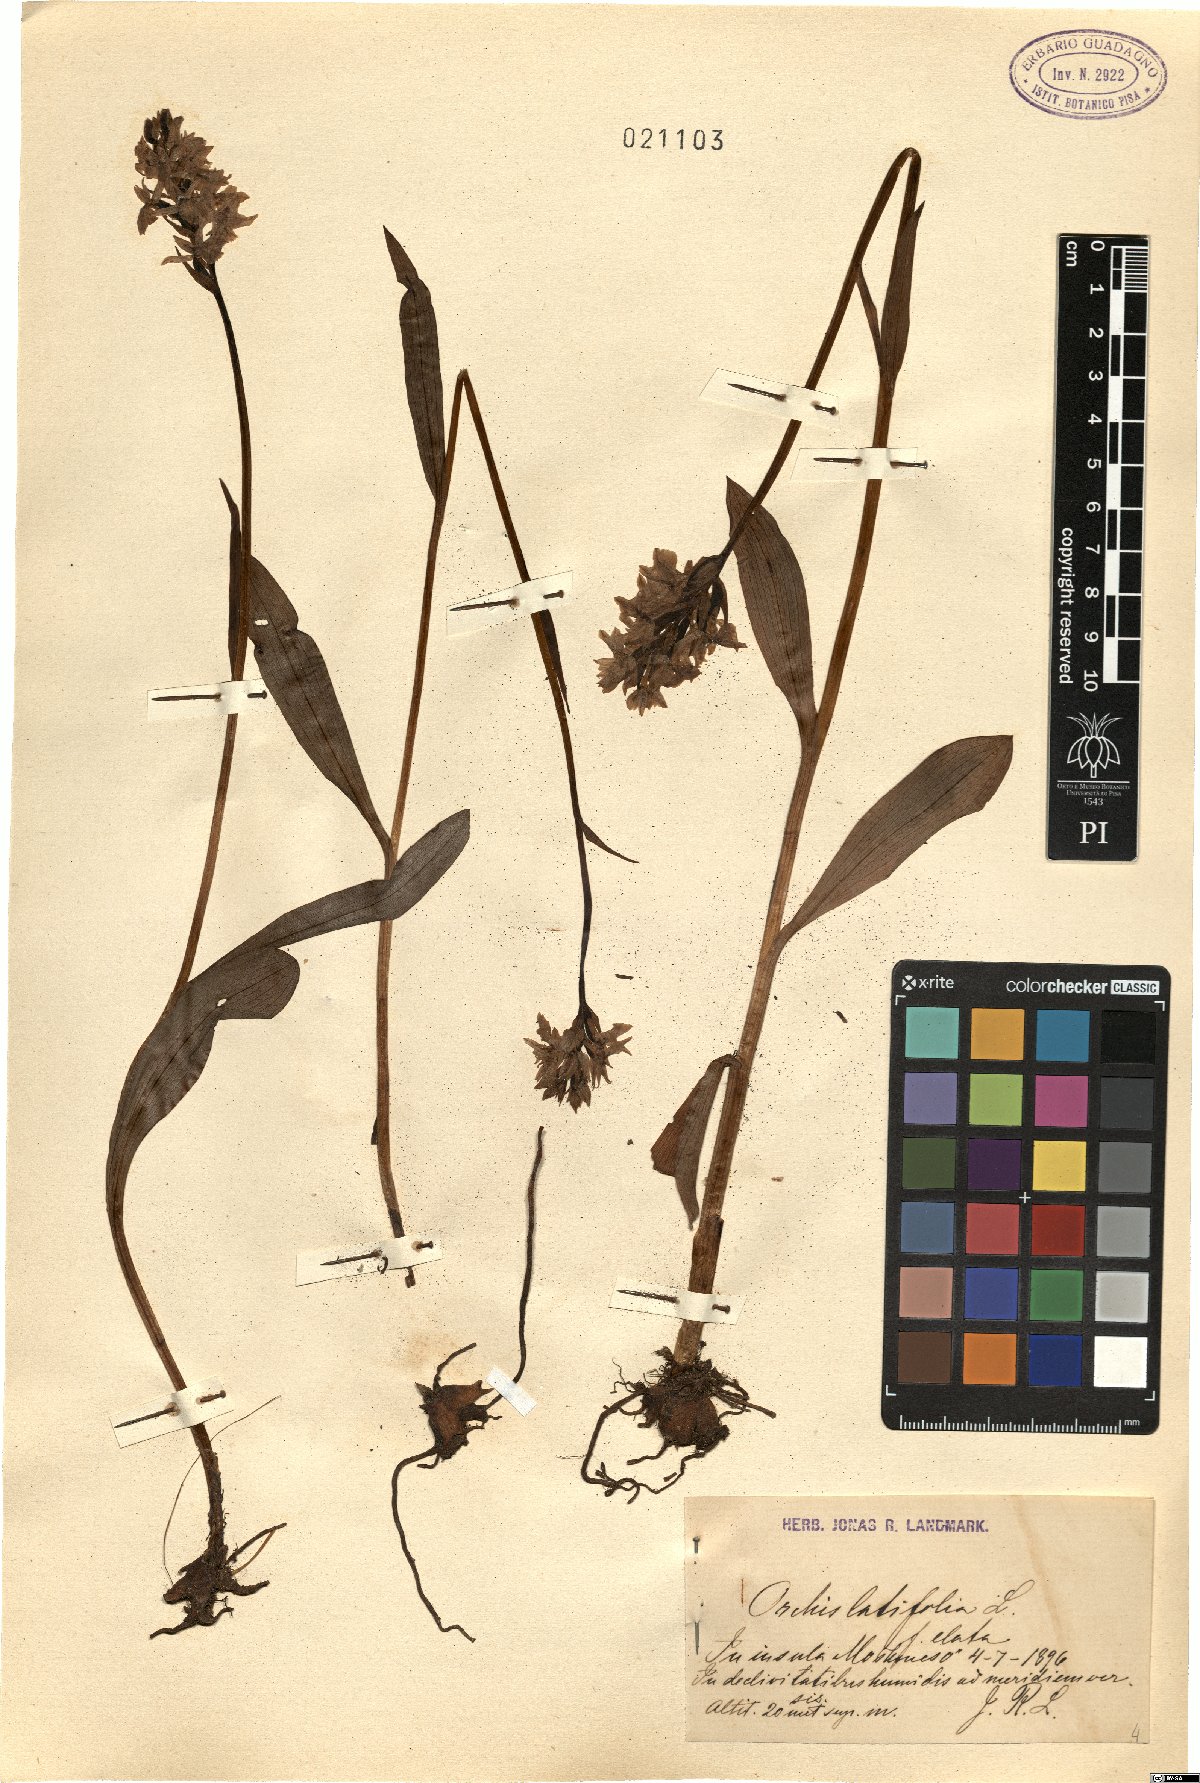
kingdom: Plantae
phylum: Tracheophyta
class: Liliopsida
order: Asparagales
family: Orchidaceae
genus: Dactylorhiza
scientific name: Dactylorhiza incarnata
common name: Early marsh-orchid
